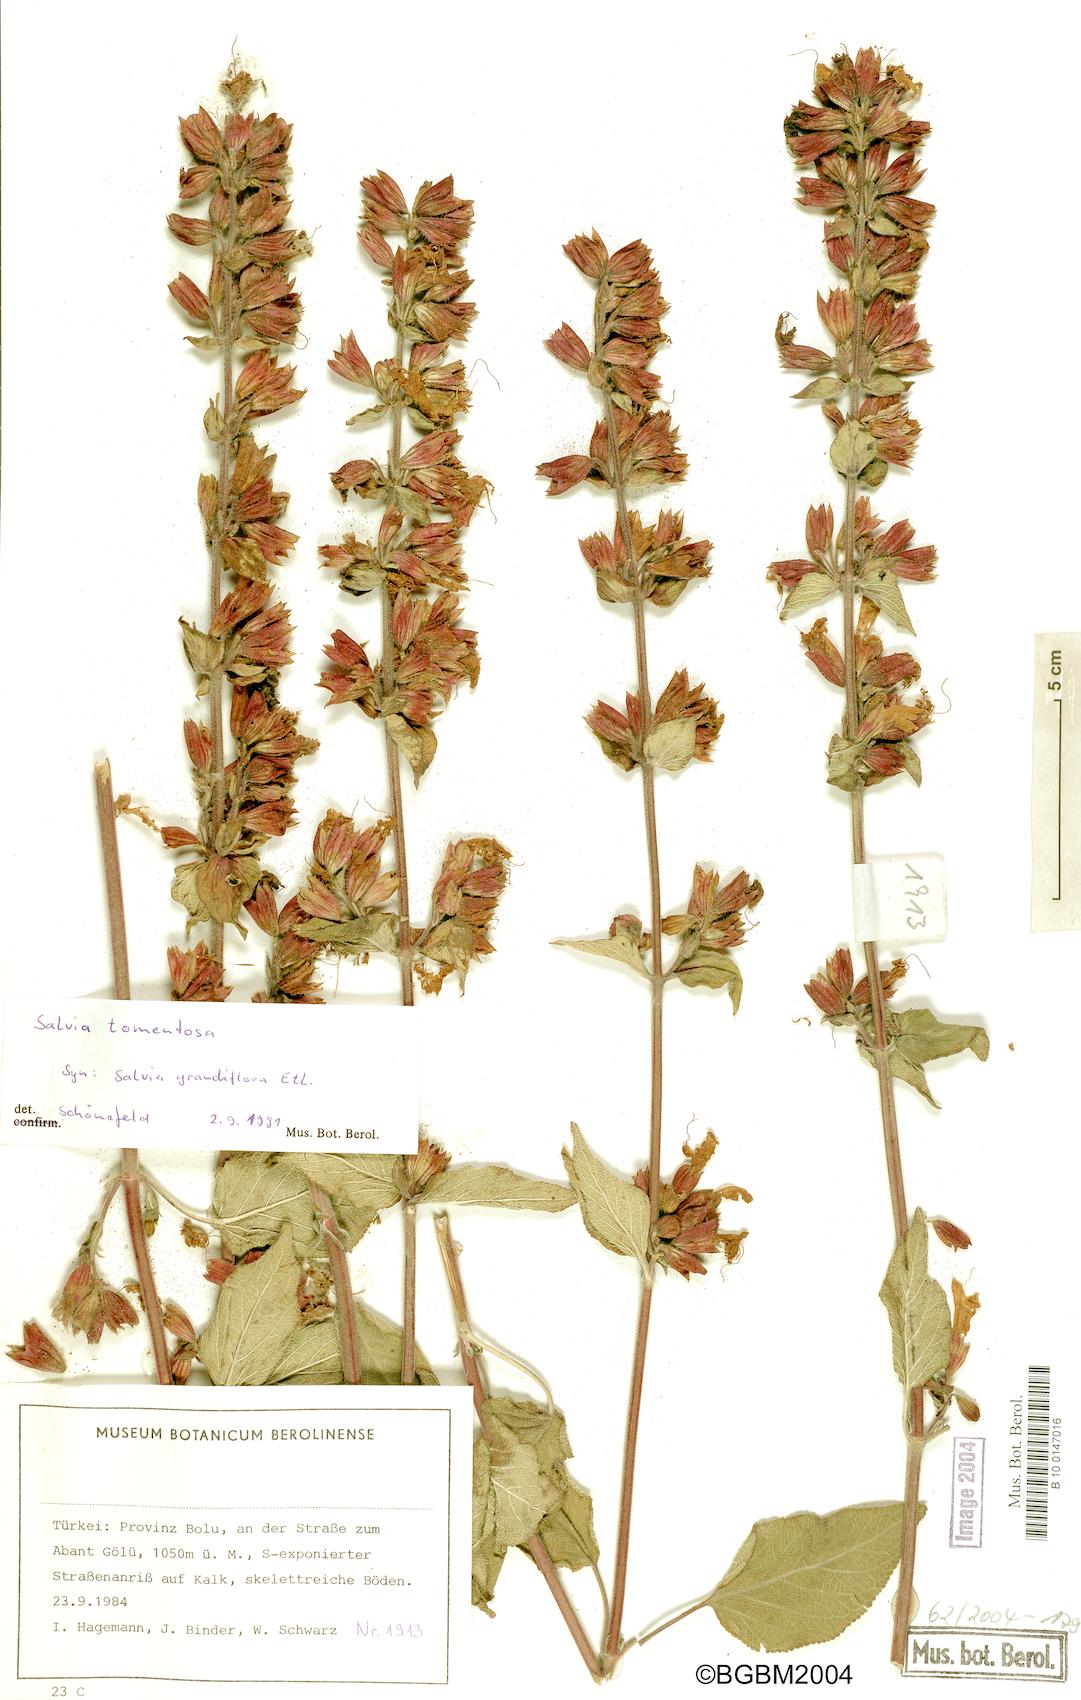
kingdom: Plantae
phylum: Tracheophyta
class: Magnoliopsida
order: Lamiales
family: Lamiaceae
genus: Salvia
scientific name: Salvia tomentosa
